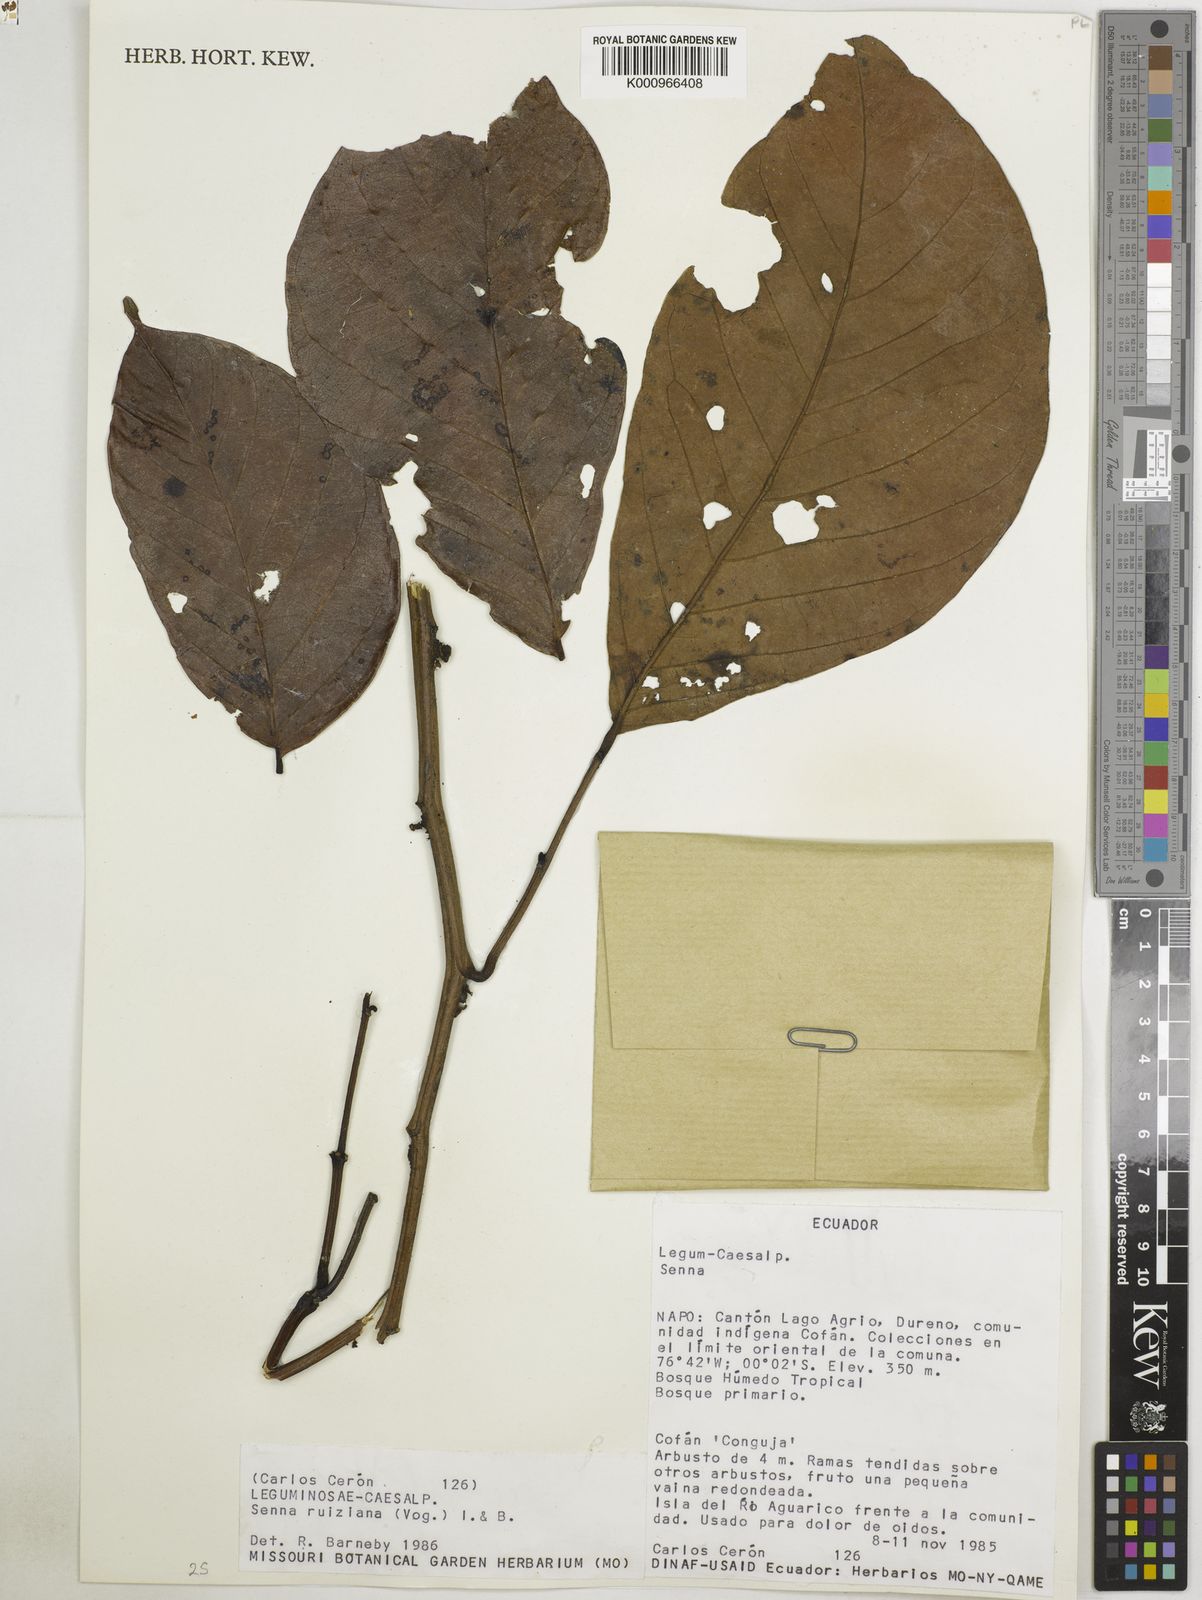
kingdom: Plantae
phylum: Tracheophyta
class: Magnoliopsida
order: Fabales
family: Fabaceae
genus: Senna
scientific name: Senna ruiziana
